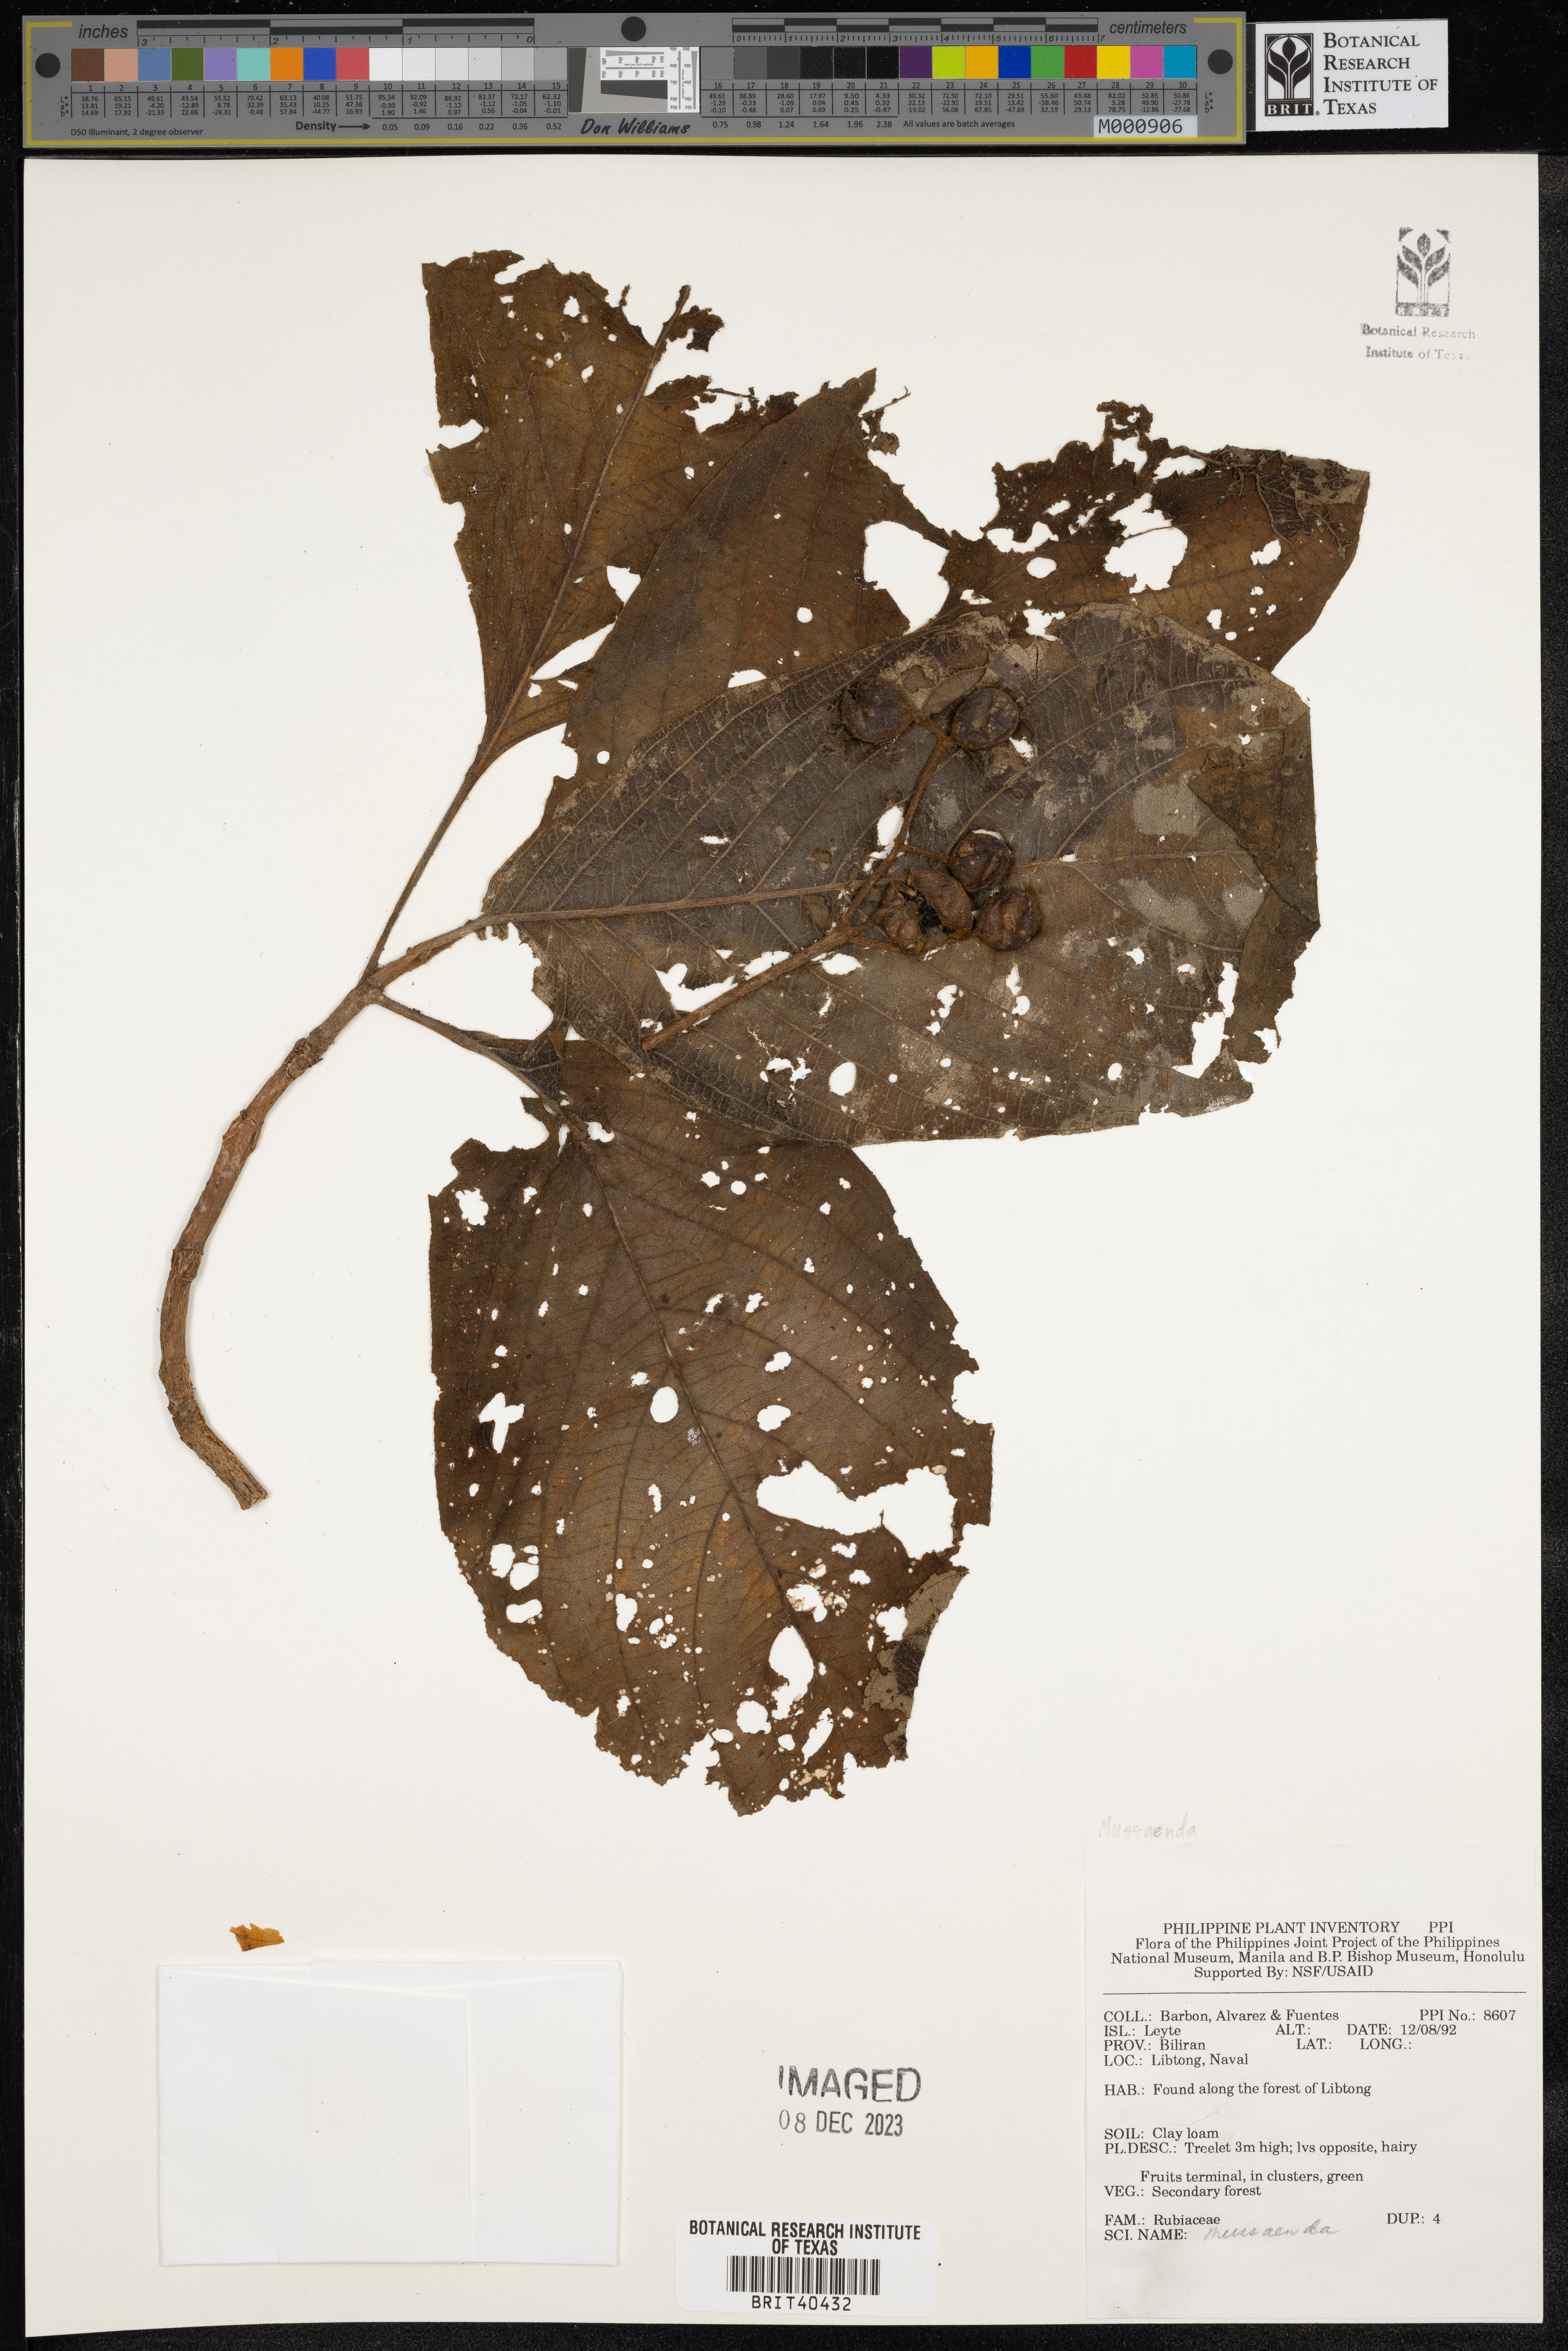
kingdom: Plantae
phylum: Tracheophyta
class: Magnoliopsida
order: Gentianales
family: Rubiaceae
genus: Mussaenda
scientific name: Mussaenda
